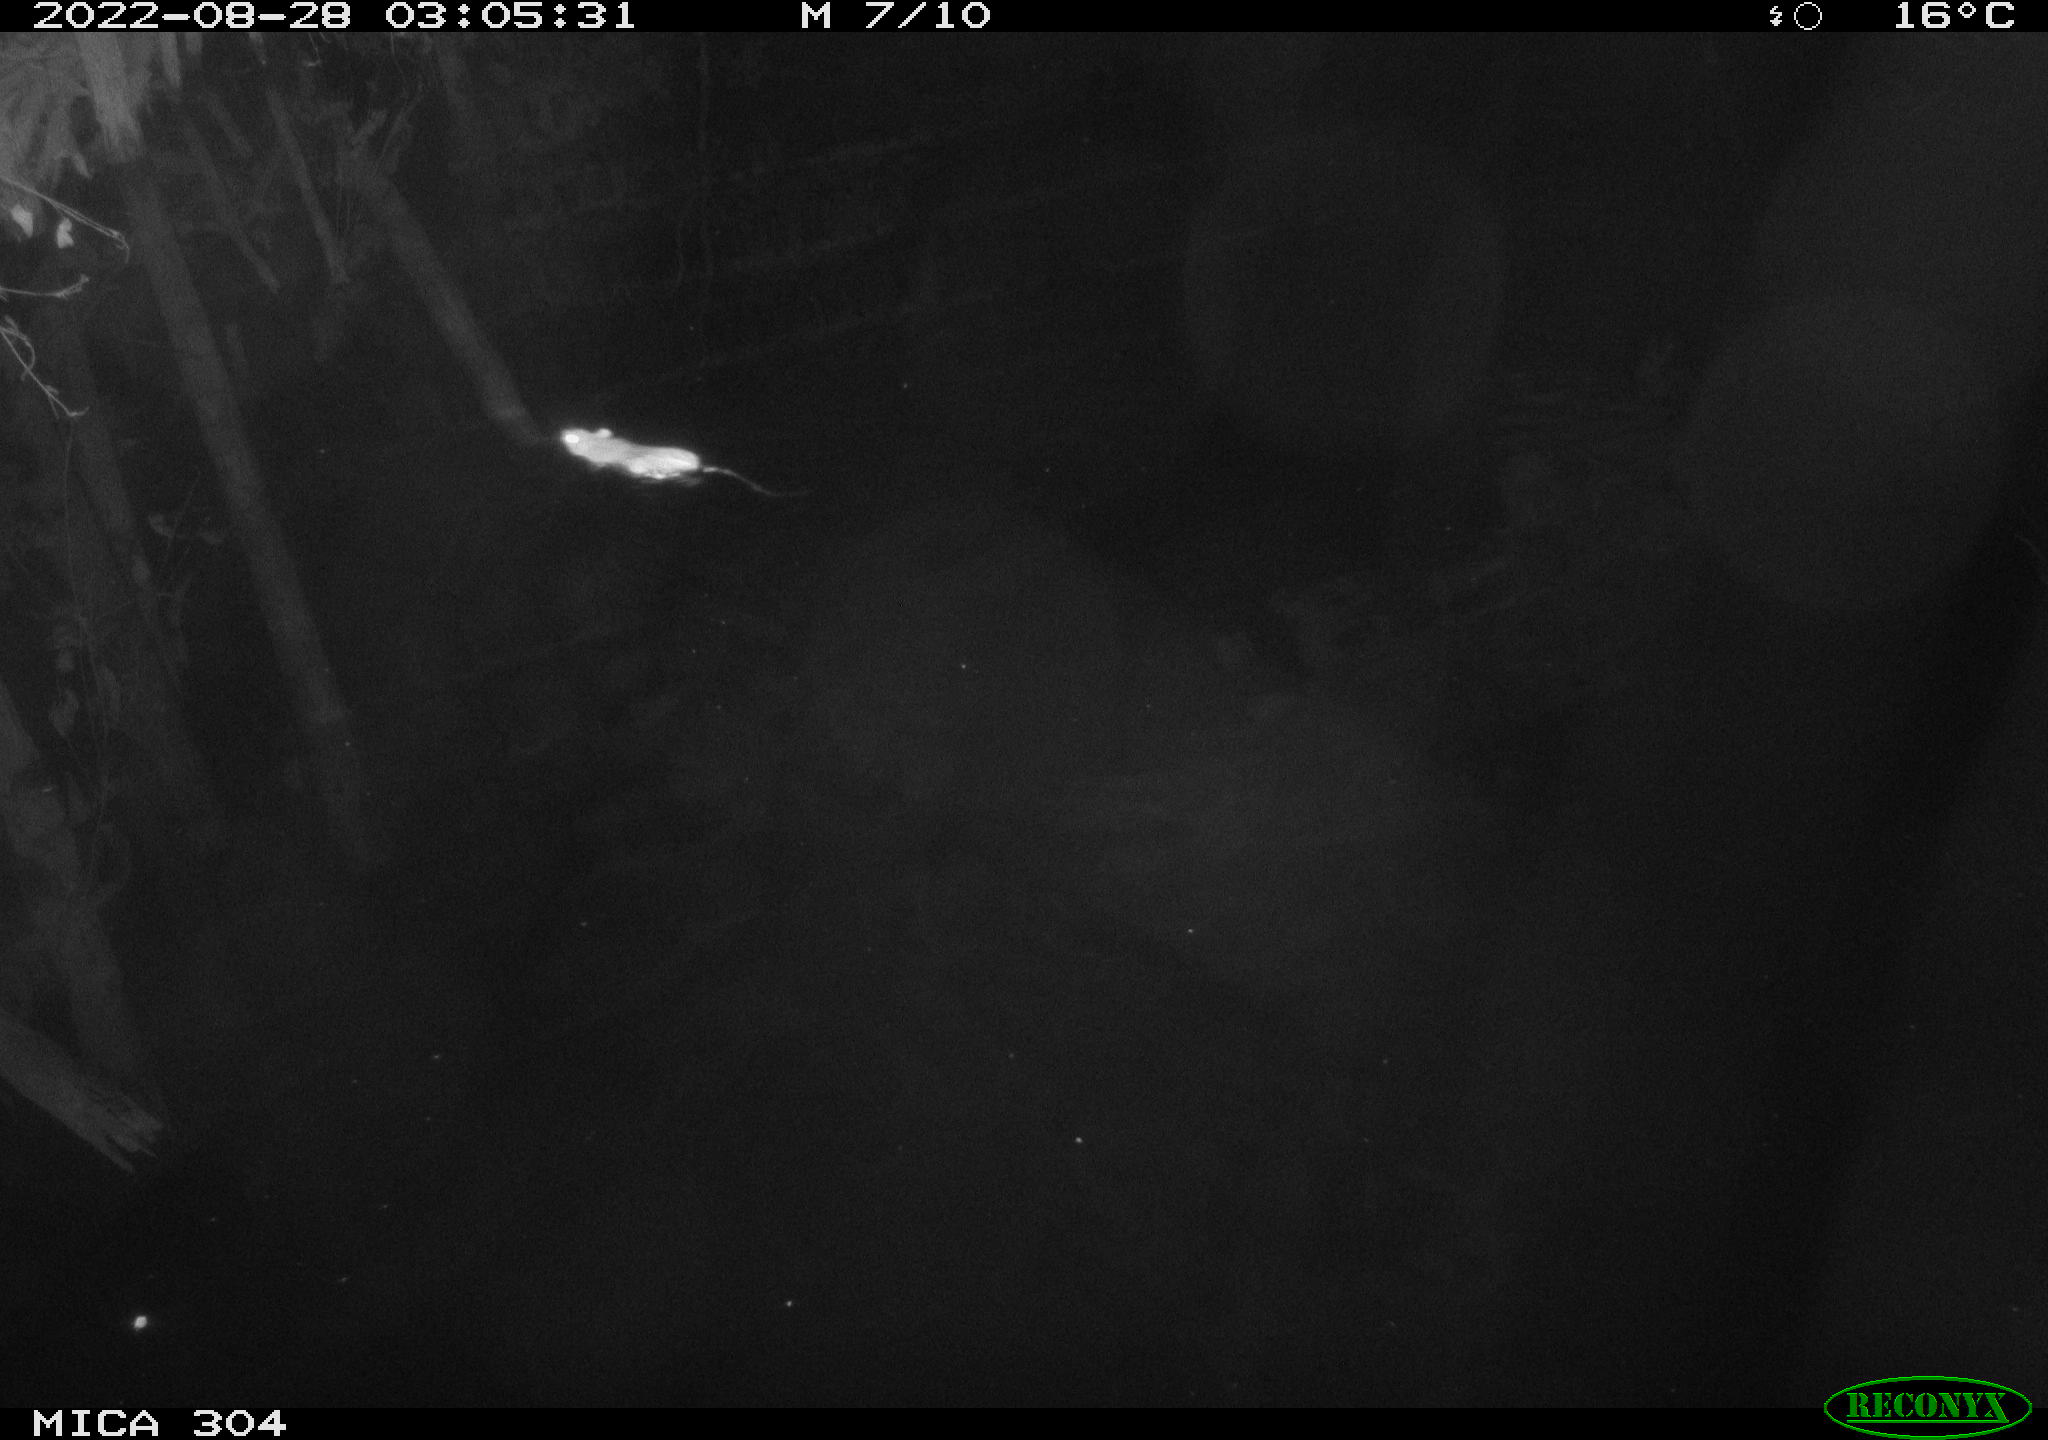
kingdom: Animalia
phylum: Chordata
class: Mammalia
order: Rodentia
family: Muridae
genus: Rattus
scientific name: Rattus norvegicus
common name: Brown rat
